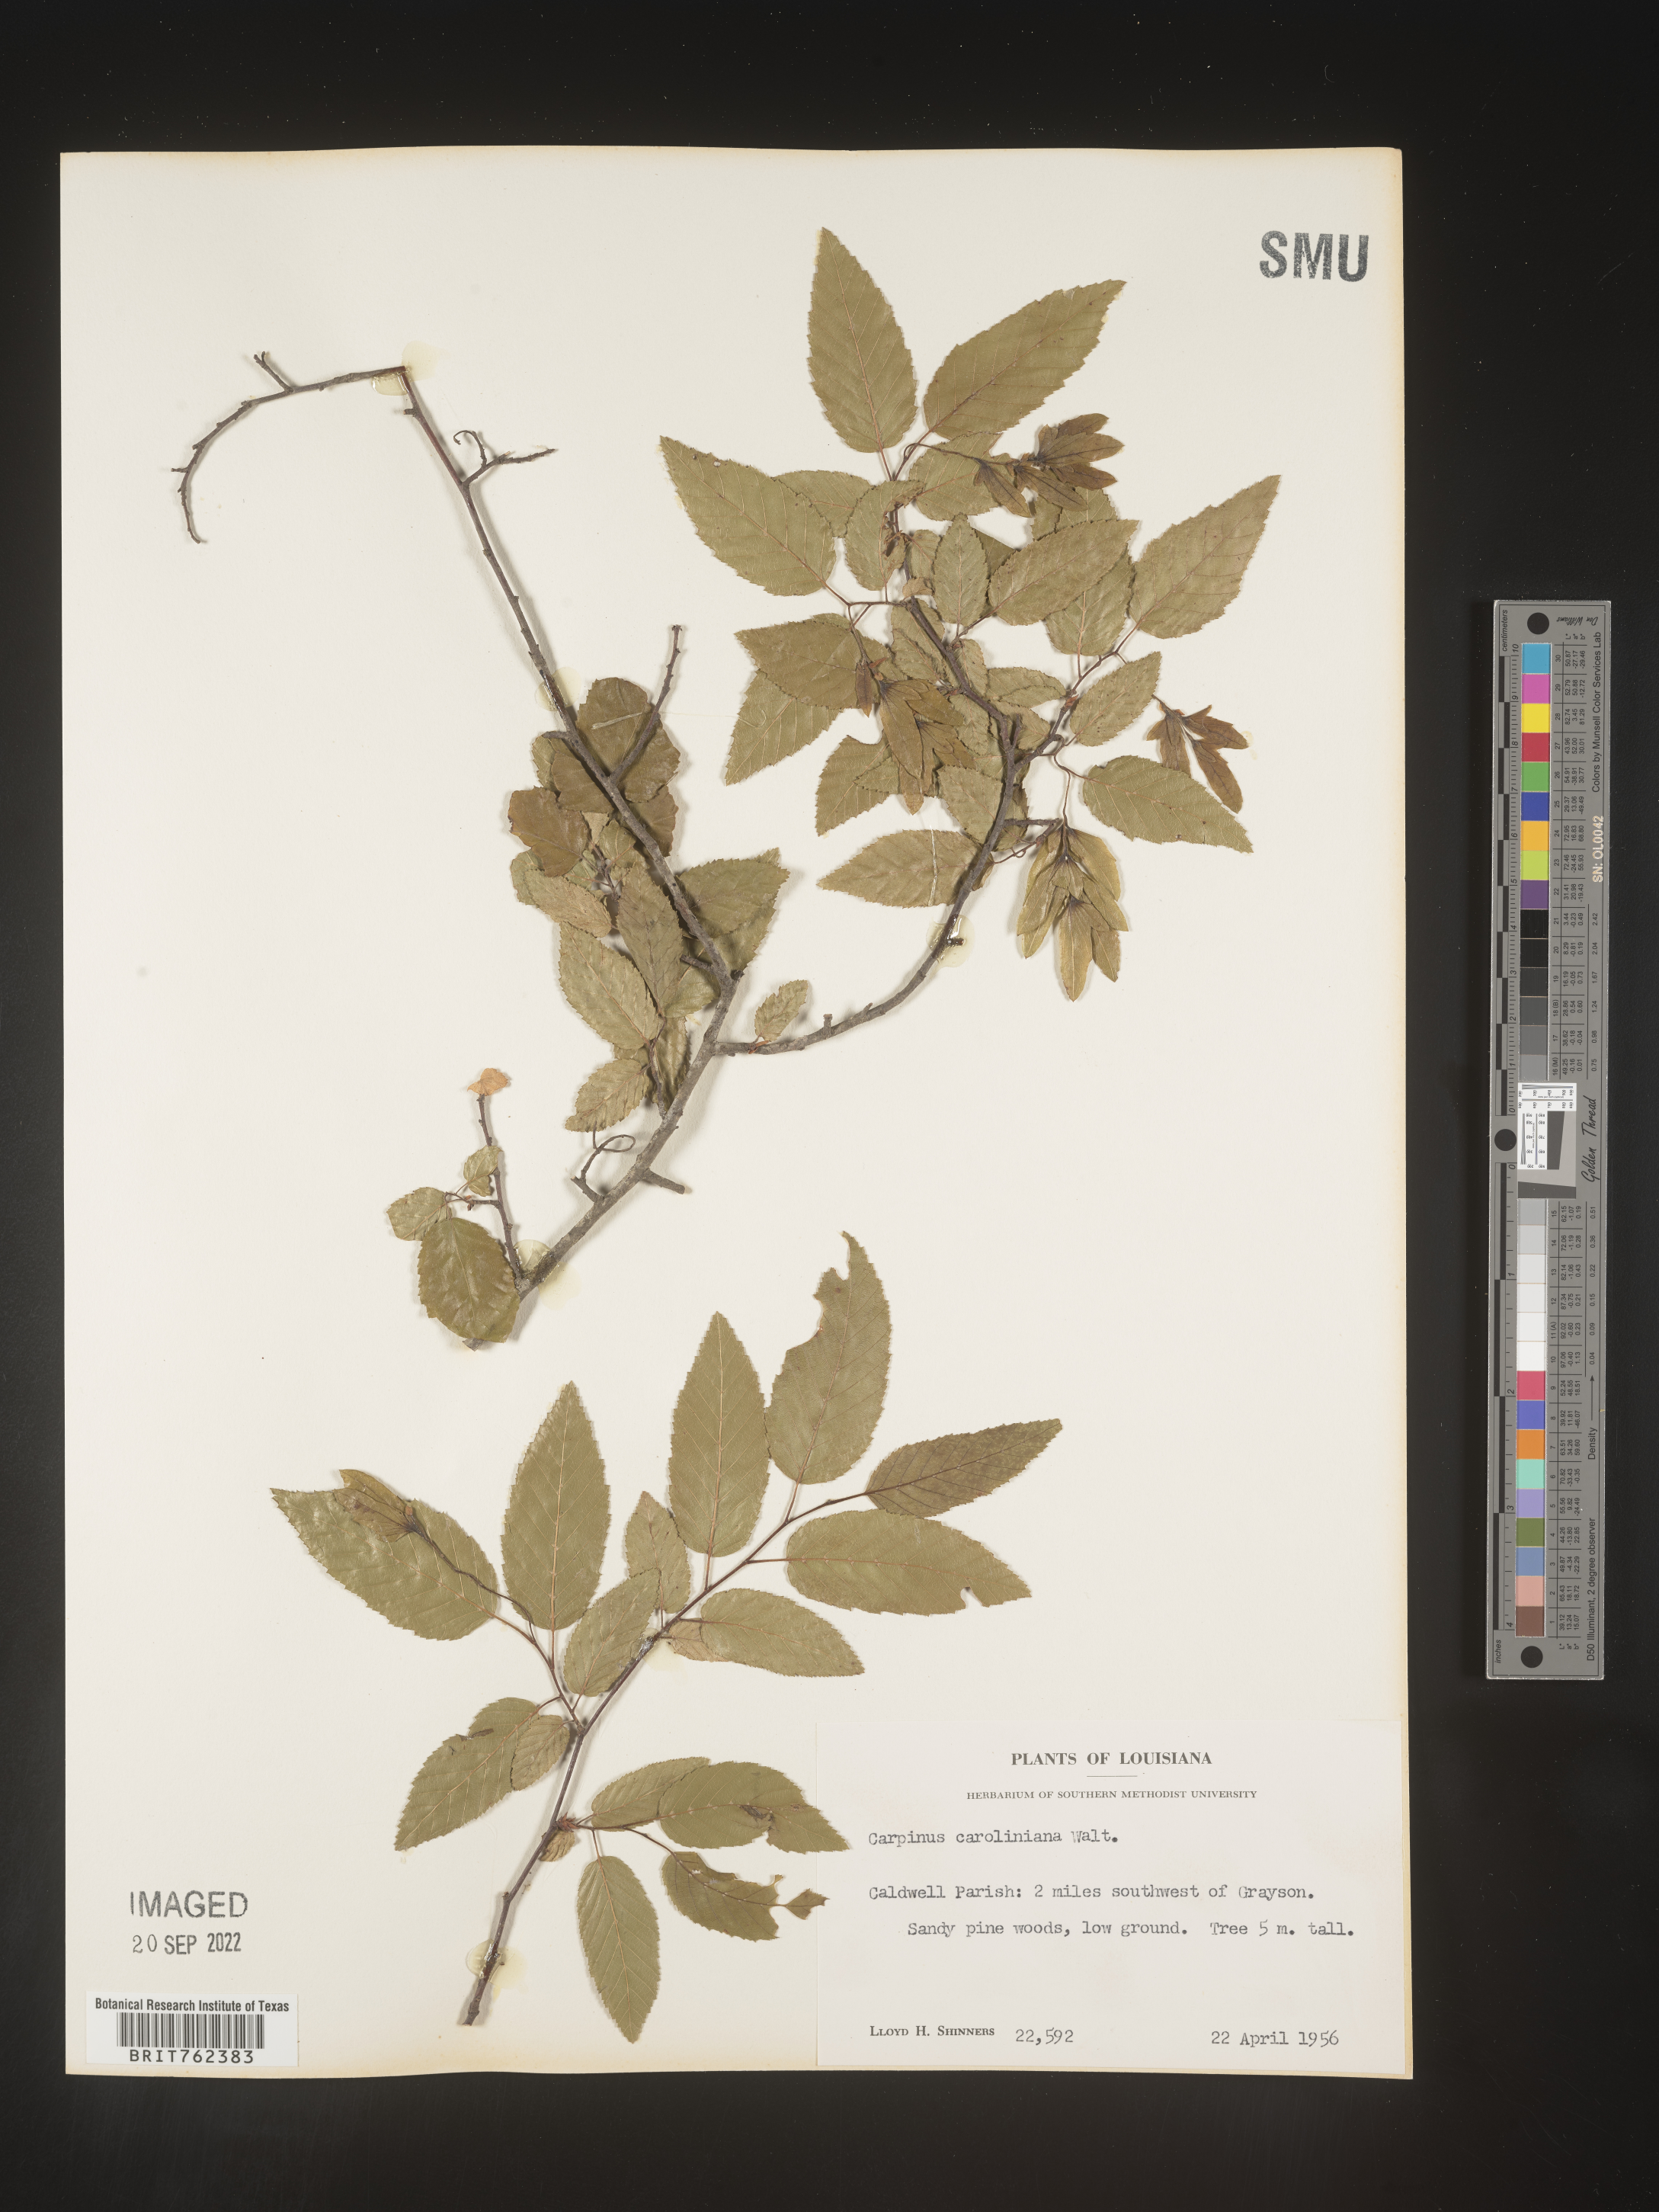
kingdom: Plantae
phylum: Tracheophyta
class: Magnoliopsida
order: Fagales
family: Betulaceae
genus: Carpinus
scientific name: Carpinus caroliniana
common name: American hornbeam
